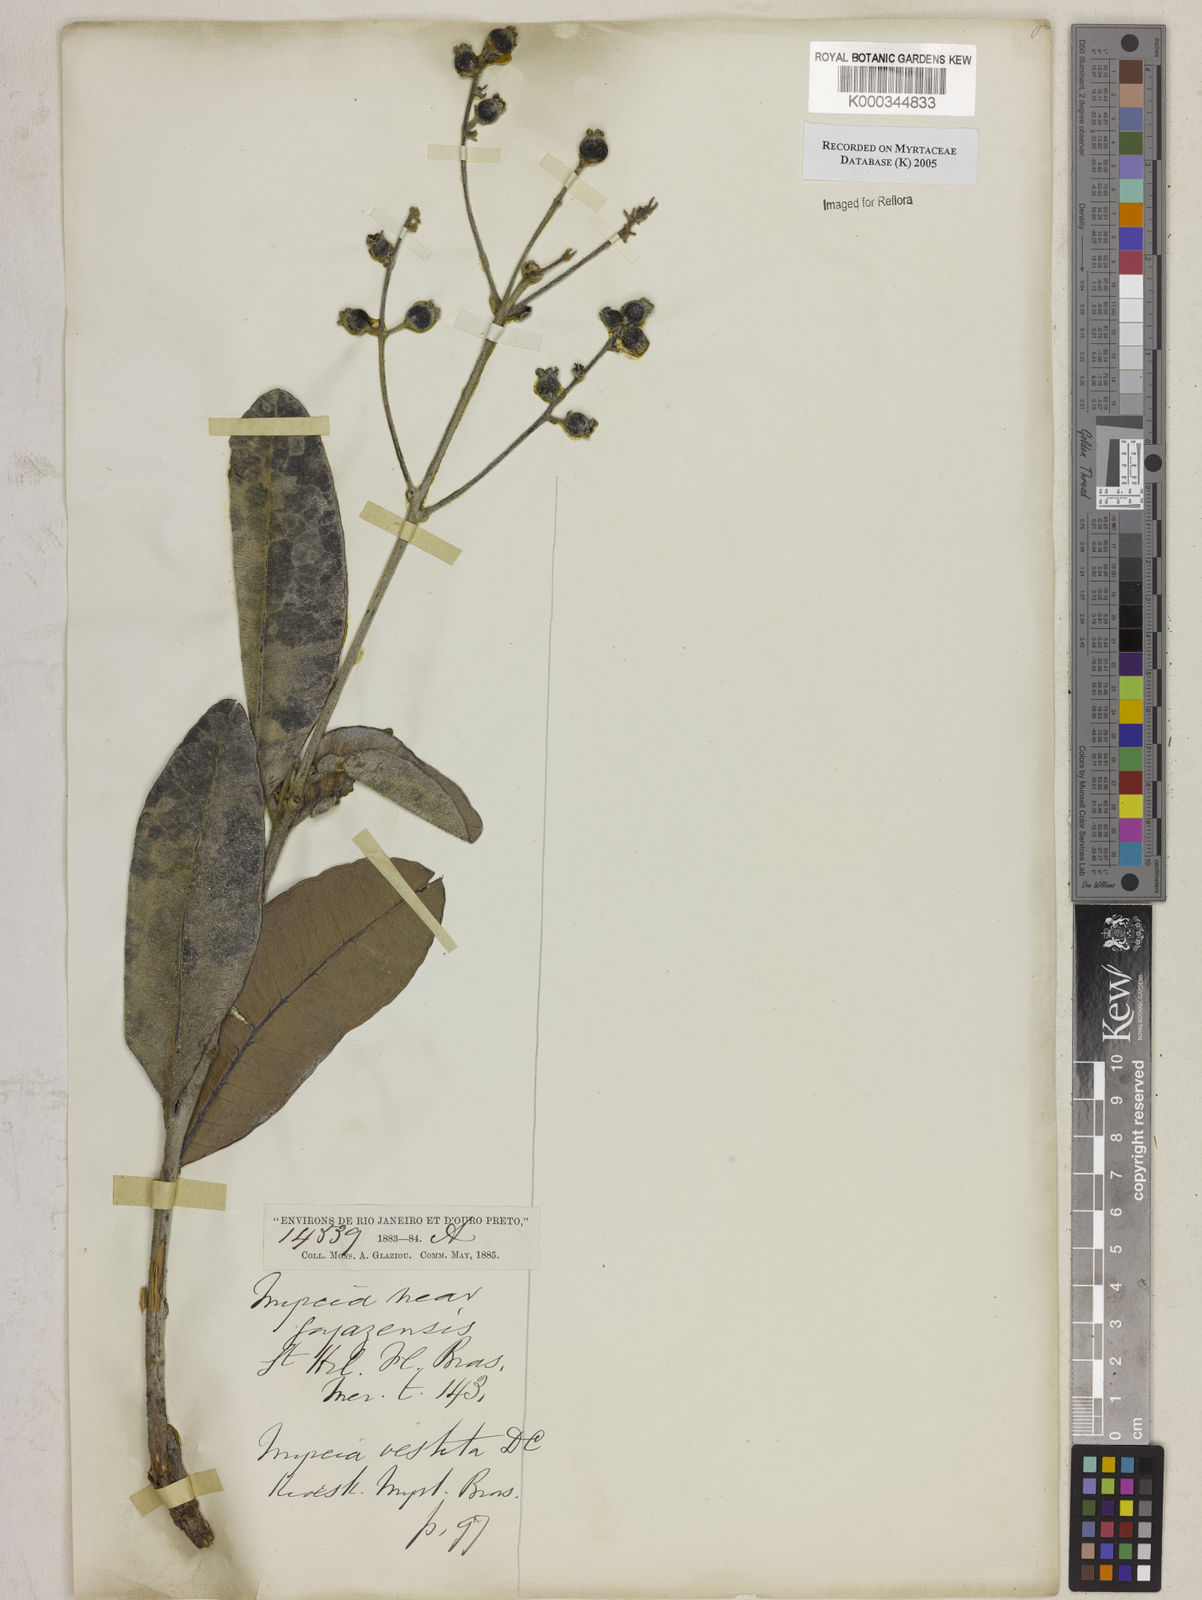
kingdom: Plantae
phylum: Tracheophyta
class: Magnoliopsida
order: Myrtales
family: Myrtaceae
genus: Myrcia
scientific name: Myrcia vestita
